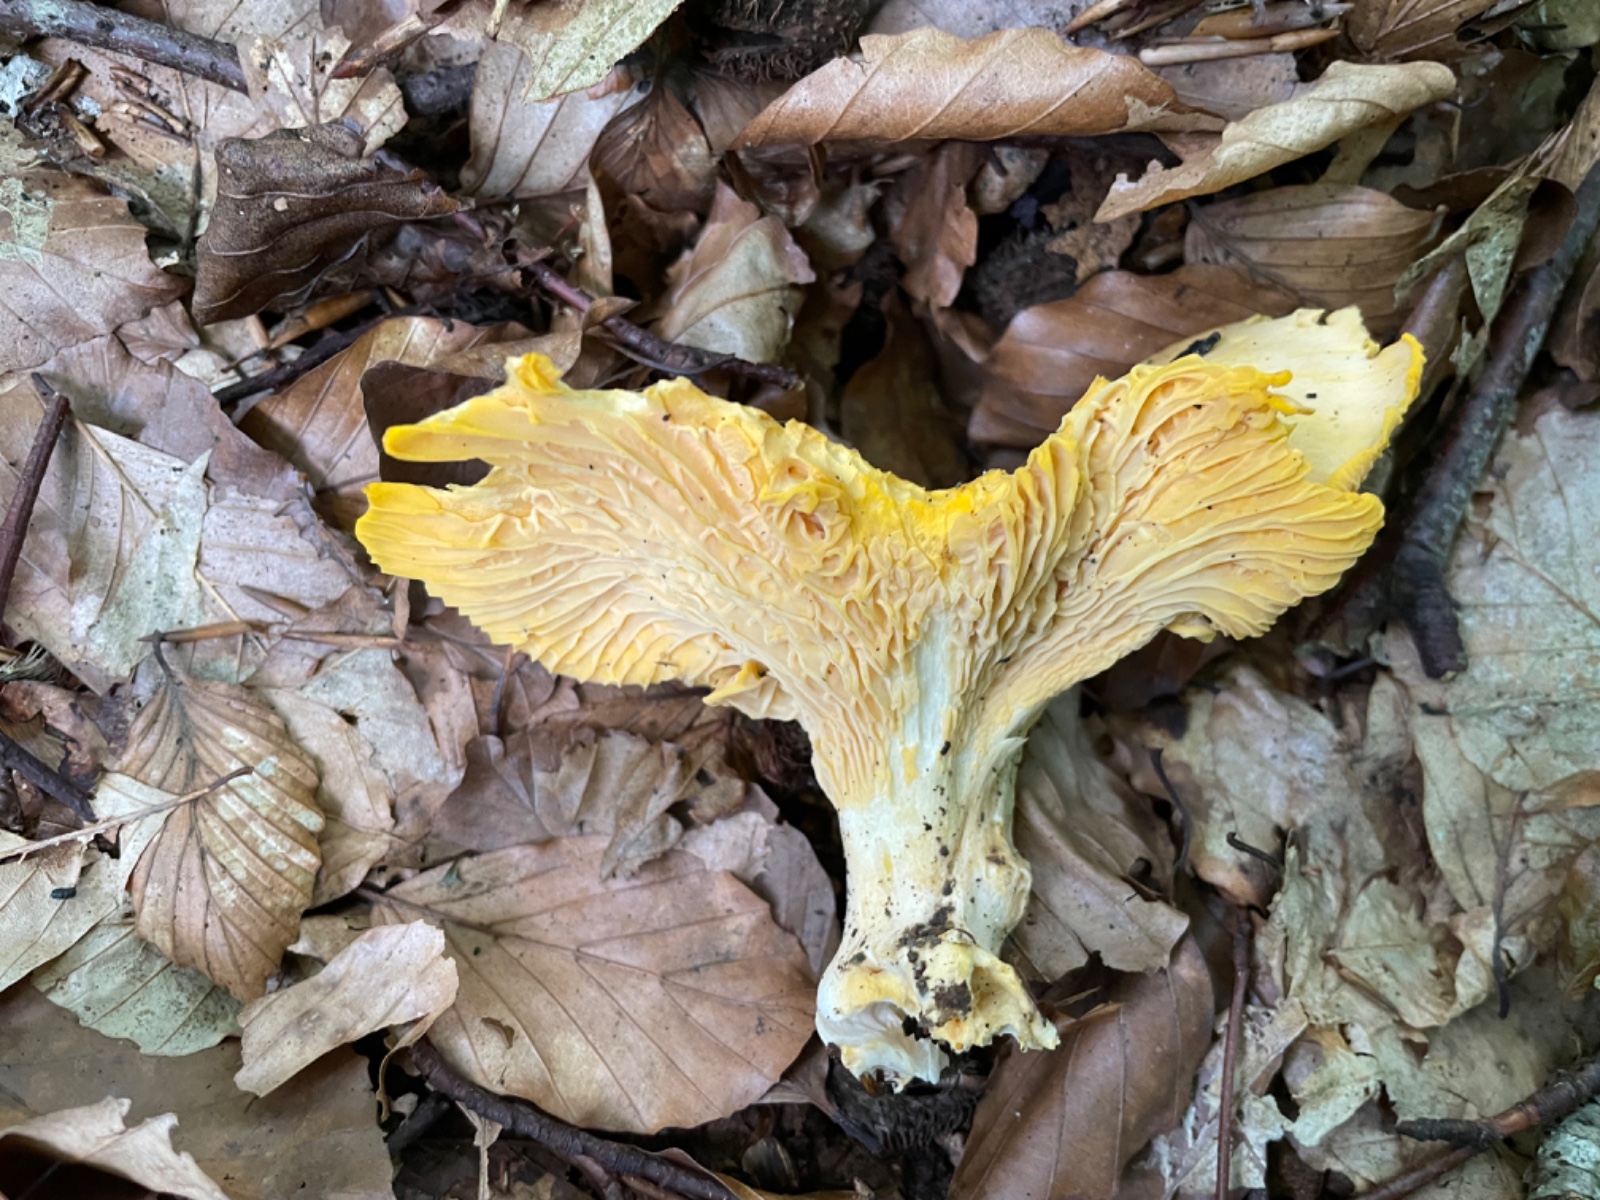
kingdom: Fungi
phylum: Basidiomycota
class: Agaricomycetes
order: Cantharellales
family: Hydnaceae
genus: Cantharellus
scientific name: Cantharellus pallens
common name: bleg kantarel
